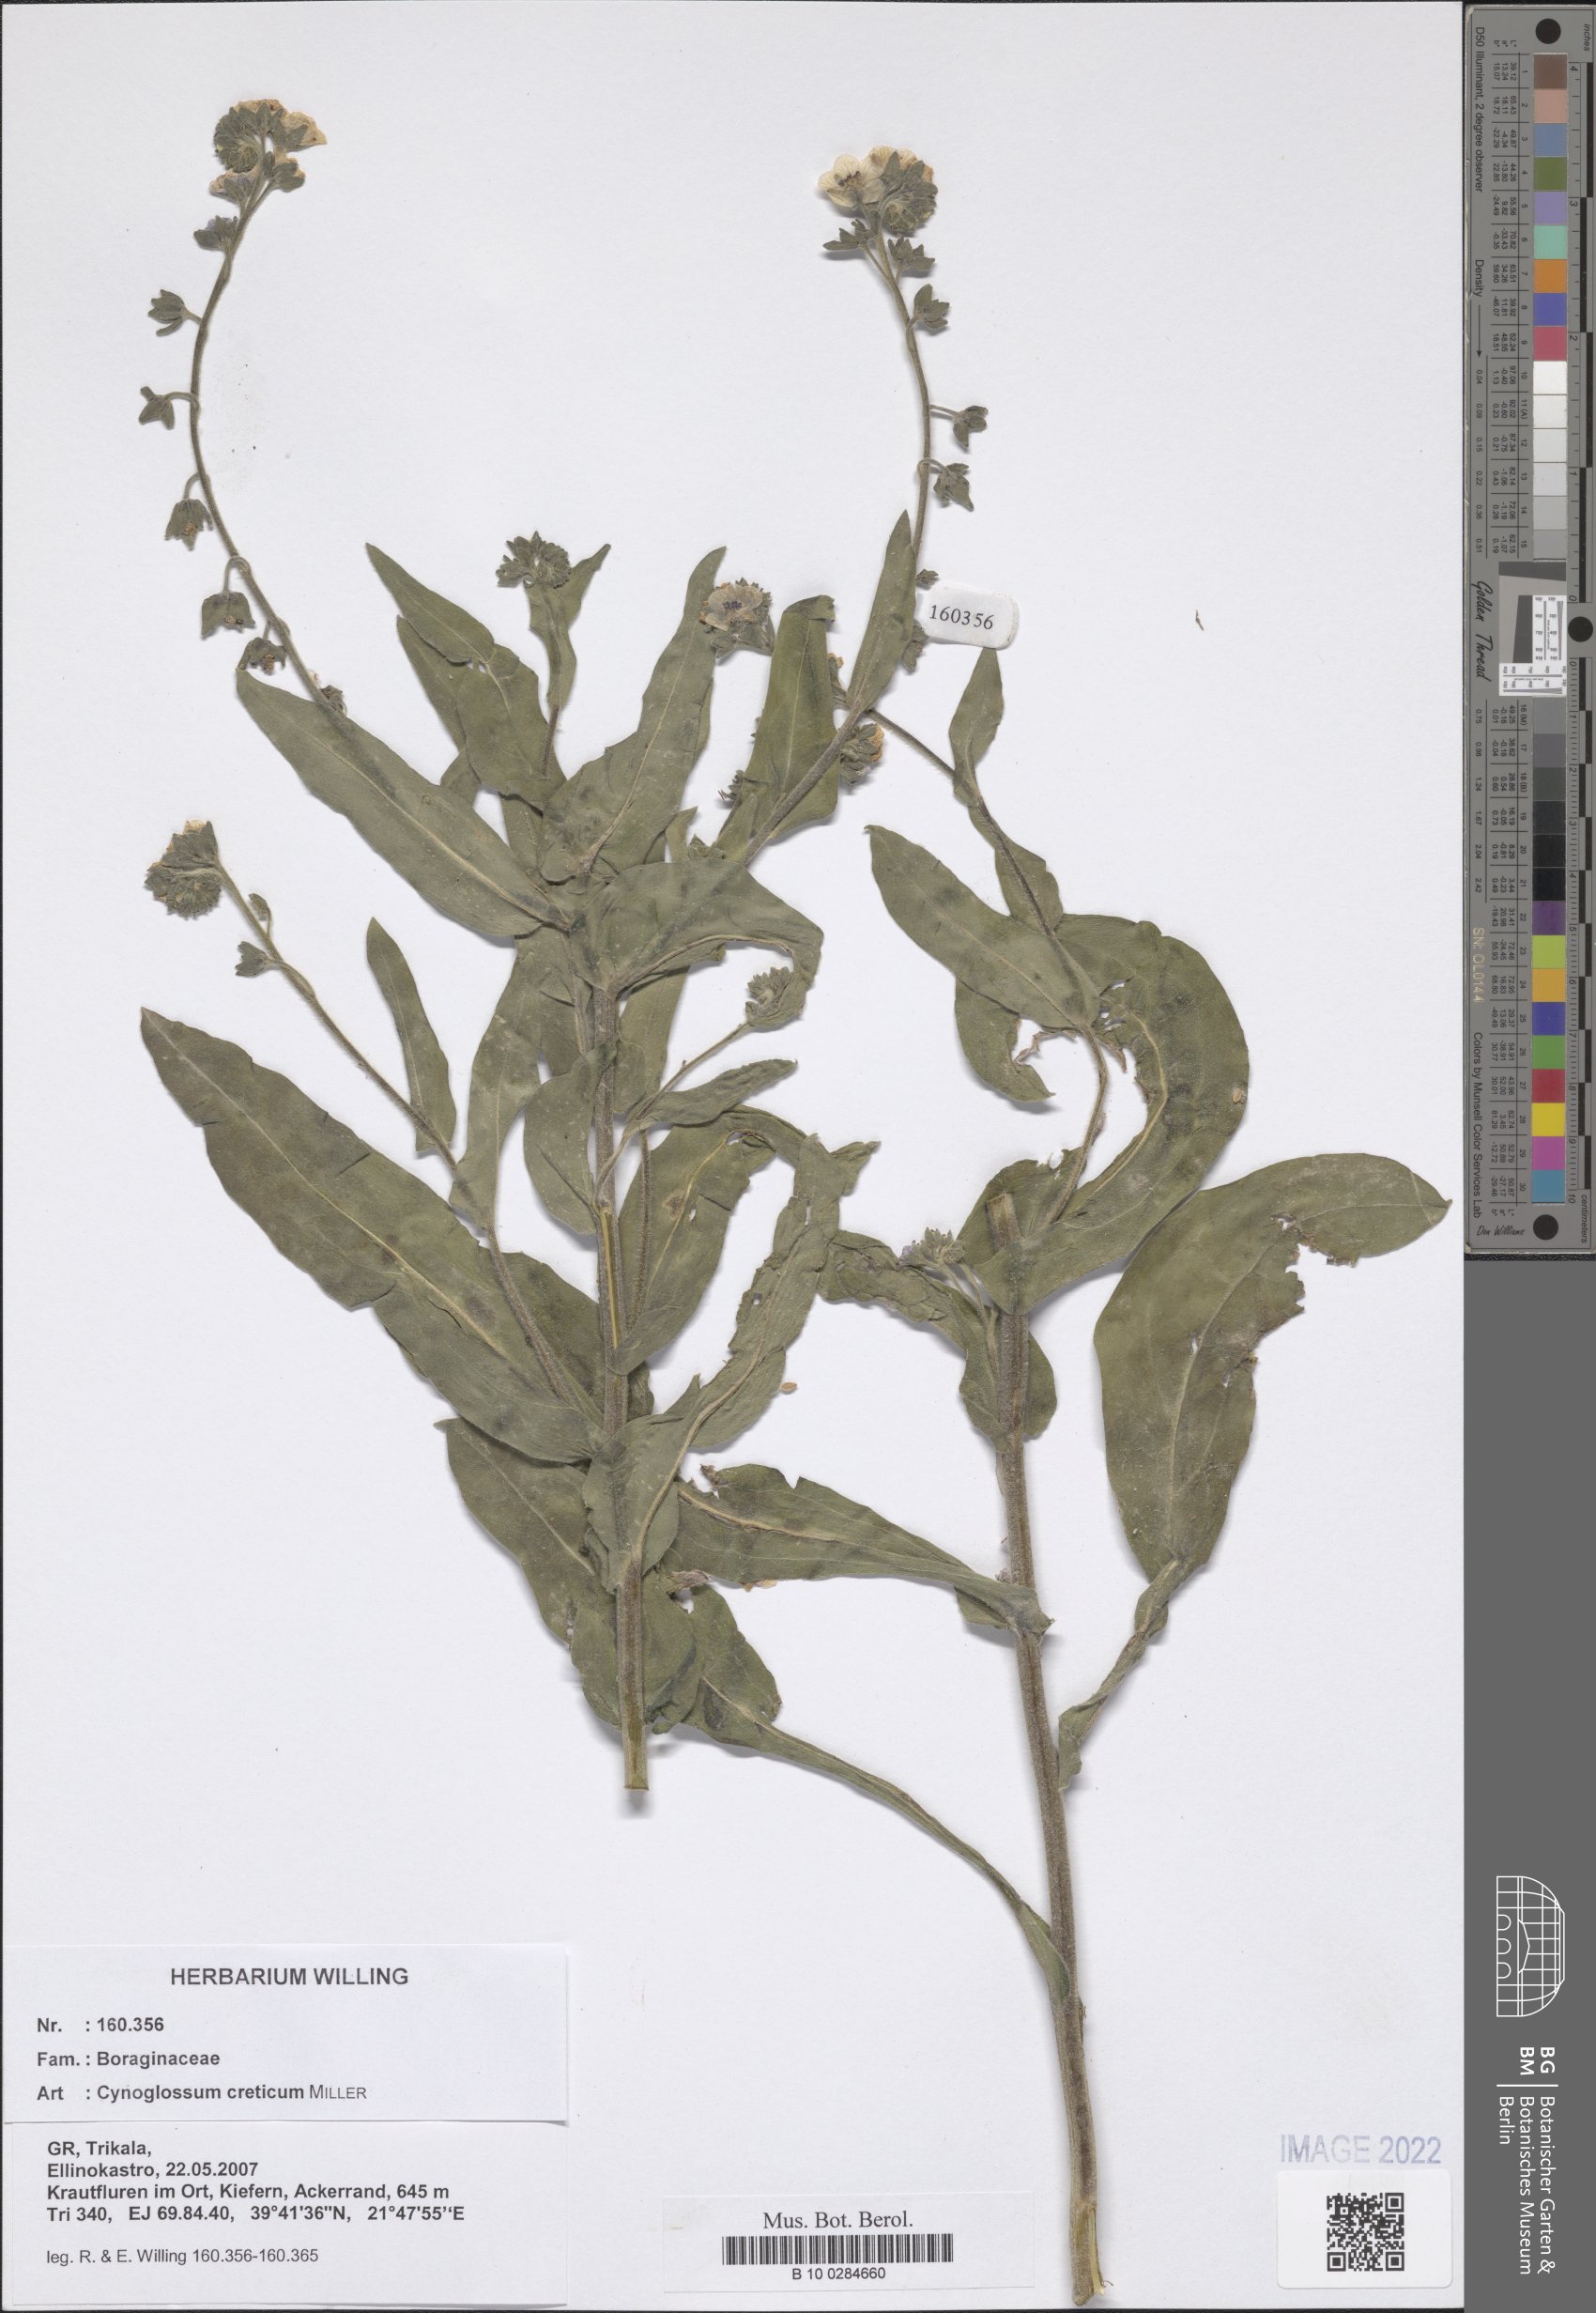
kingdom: Plantae
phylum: Tracheophyta
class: Magnoliopsida
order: Boraginales
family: Boraginaceae
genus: Cynoglossum
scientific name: Cynoglossum creticum
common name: Blue hound's tongue
